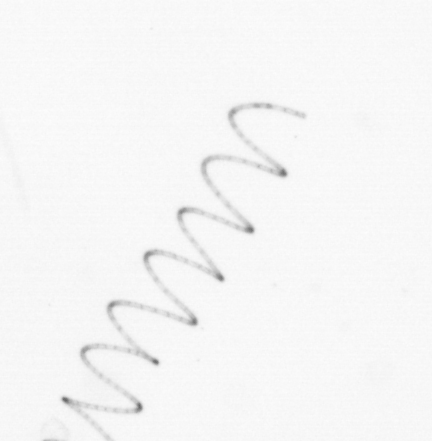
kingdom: Chromista
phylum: Ochrophyta
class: Bacillariophyceae
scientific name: Bacillariophyceae
